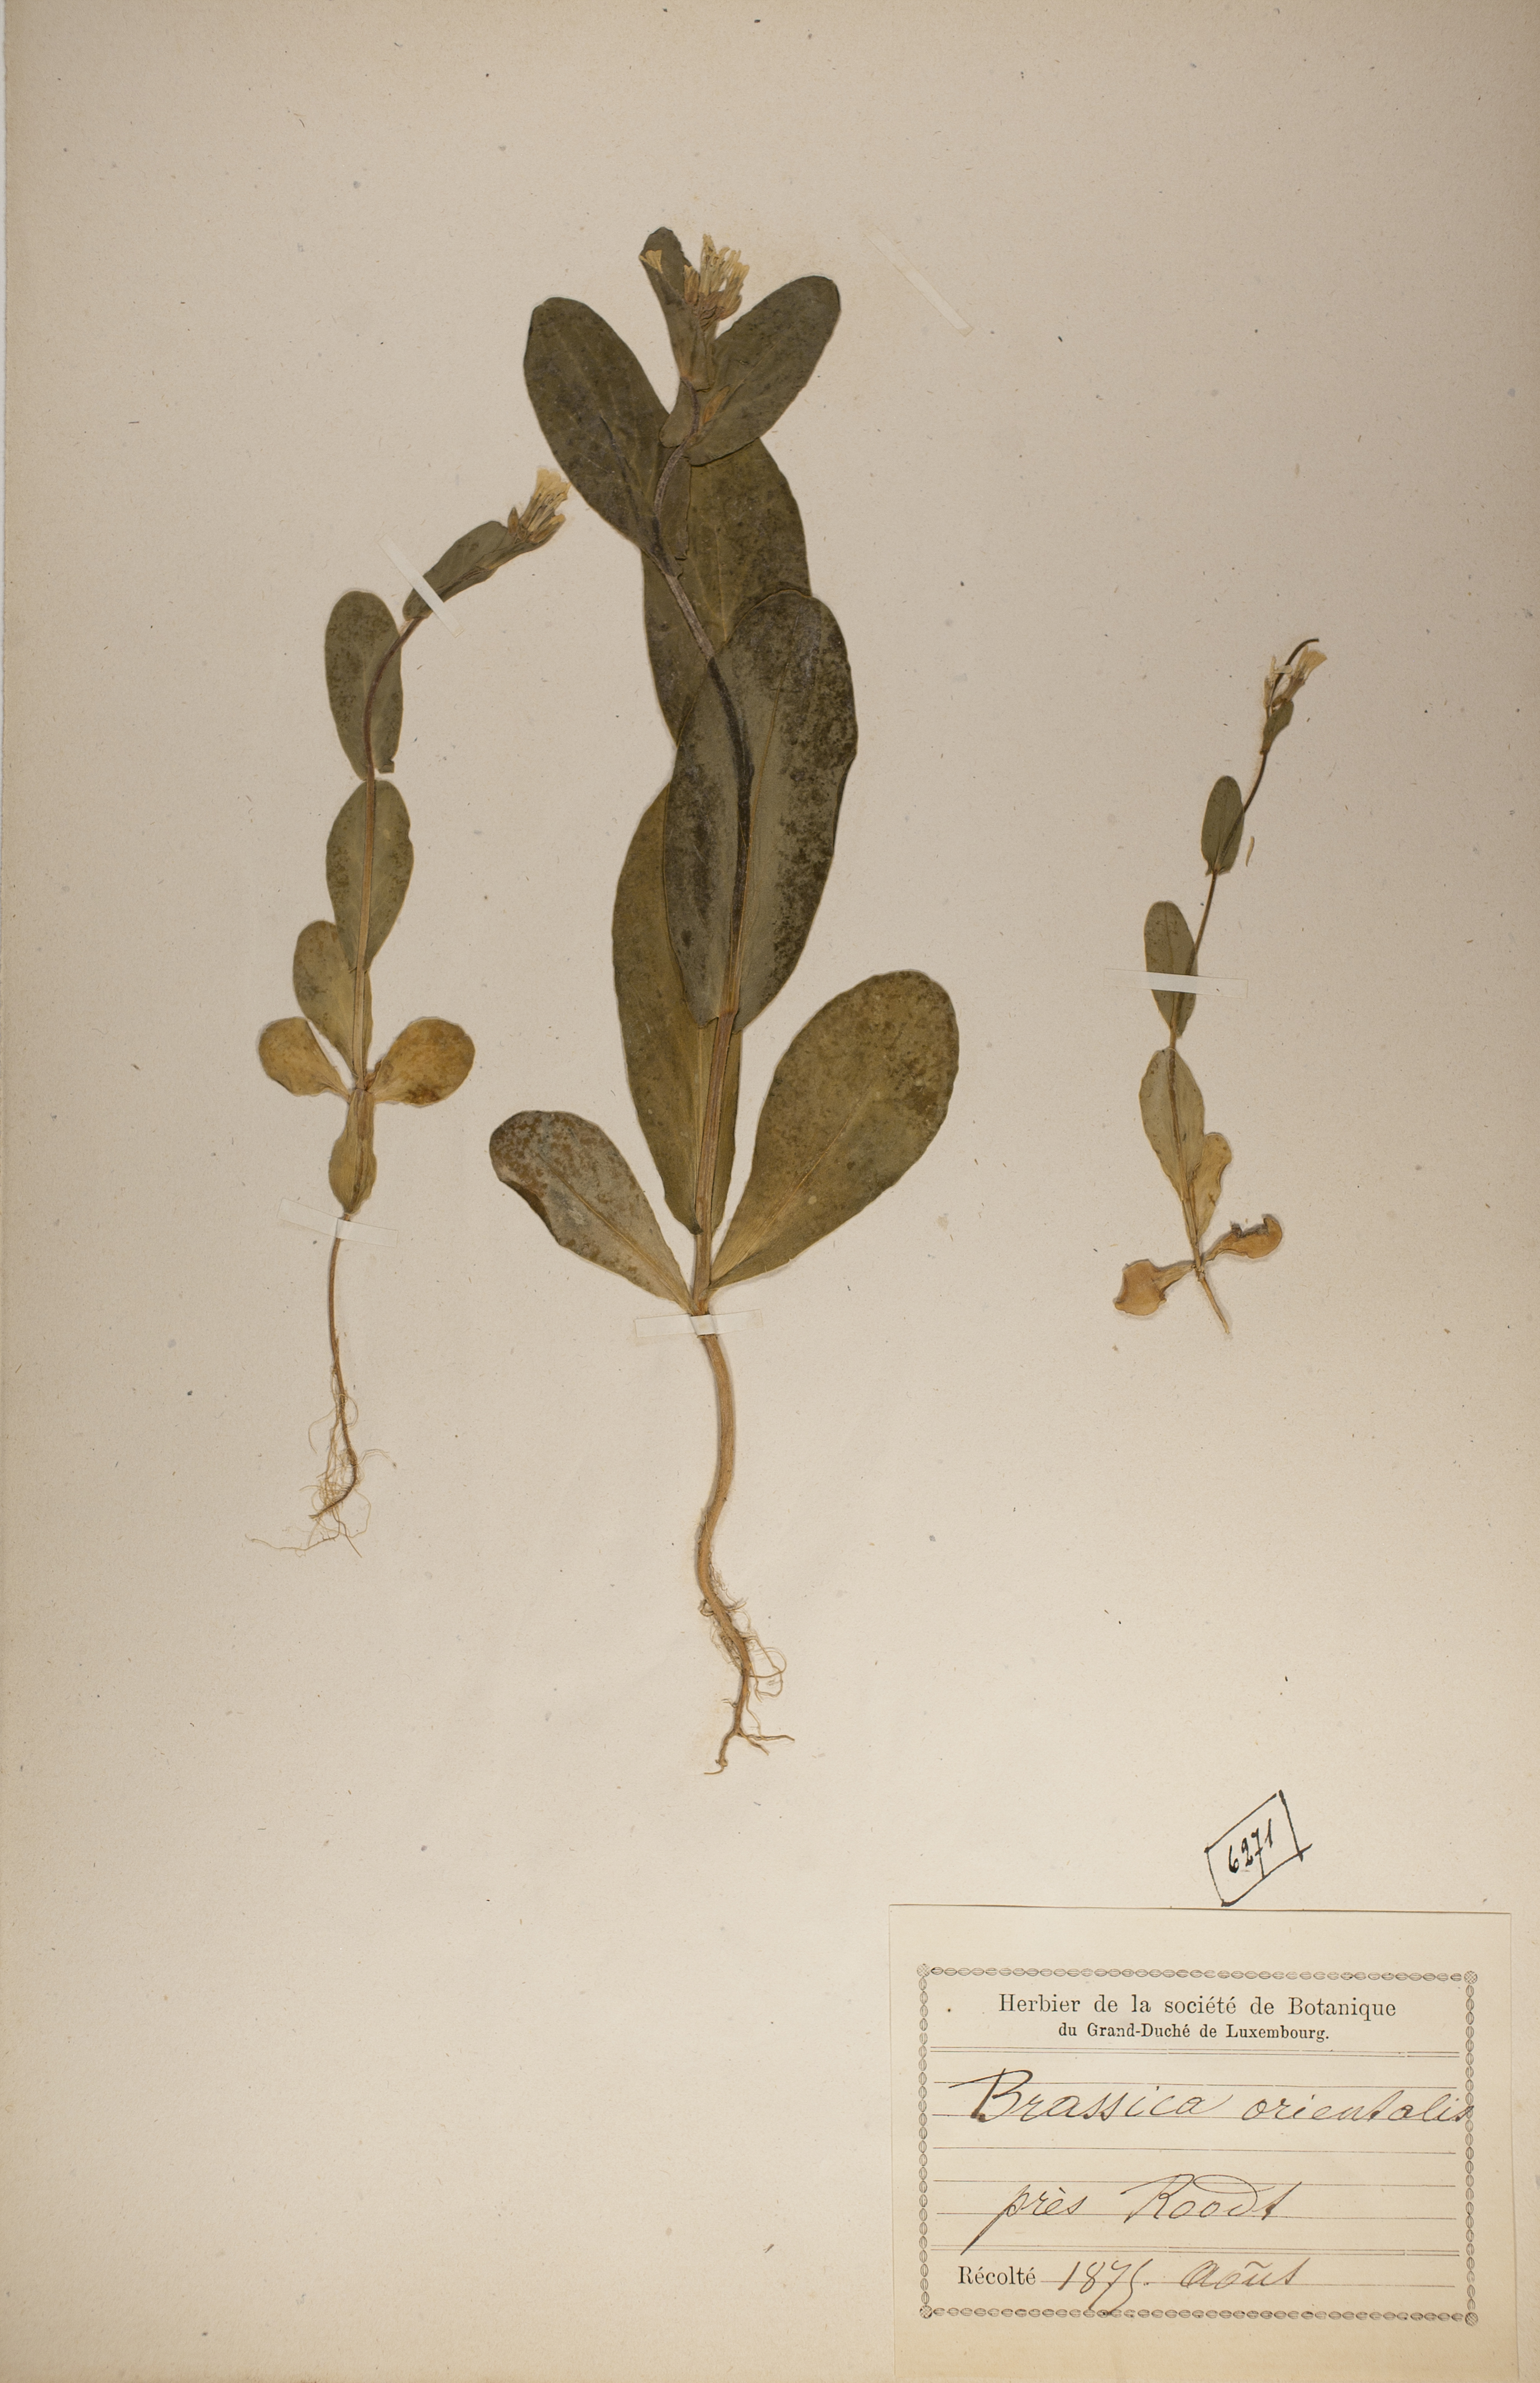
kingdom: Plantae
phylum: Tracheophyta
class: Magnoliopsida
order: Brassicales
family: Brassicaceae
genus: Conringia
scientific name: Conringia orientalis
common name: Hare's ear mustard
